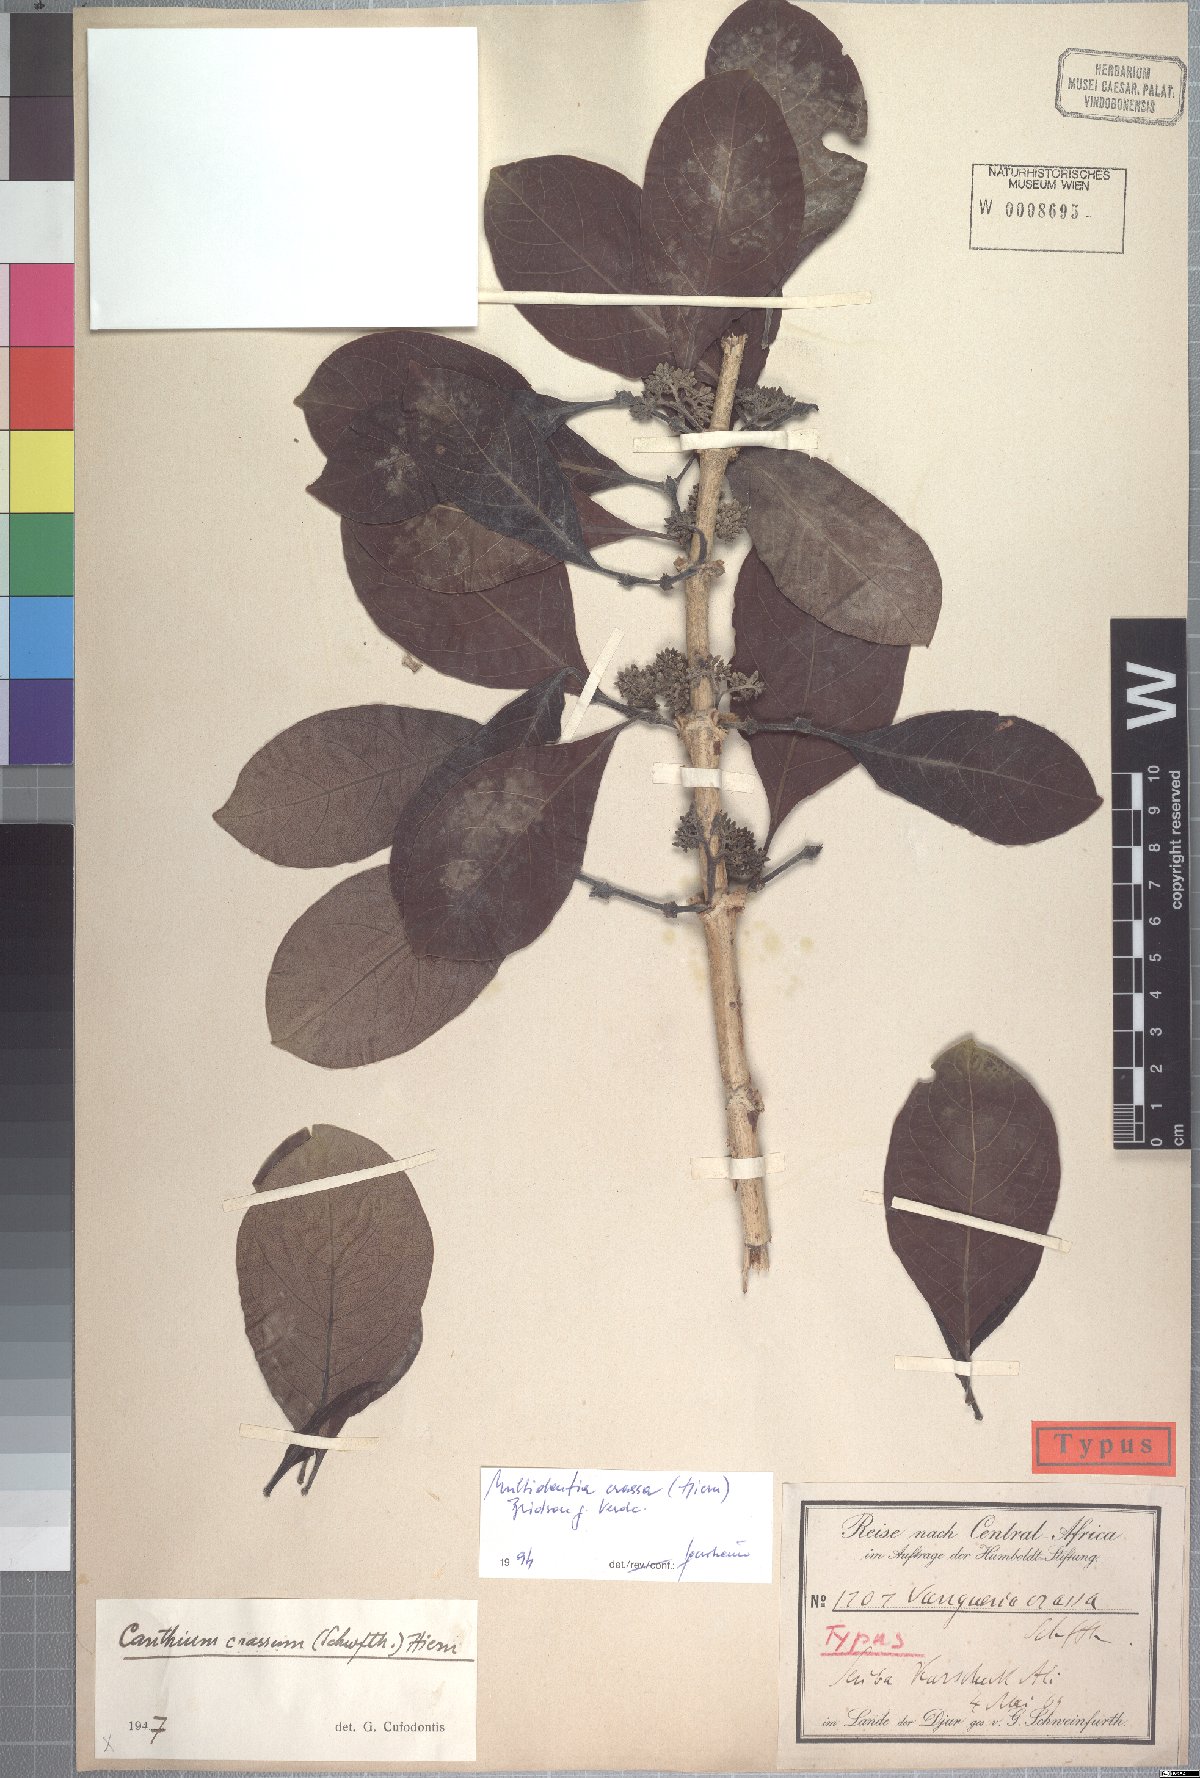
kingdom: Plantae
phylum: Tracheophyta
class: Magnoliopsida
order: Gentianales
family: Rubiaceae
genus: Multidentia
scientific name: Multidentia crassa
